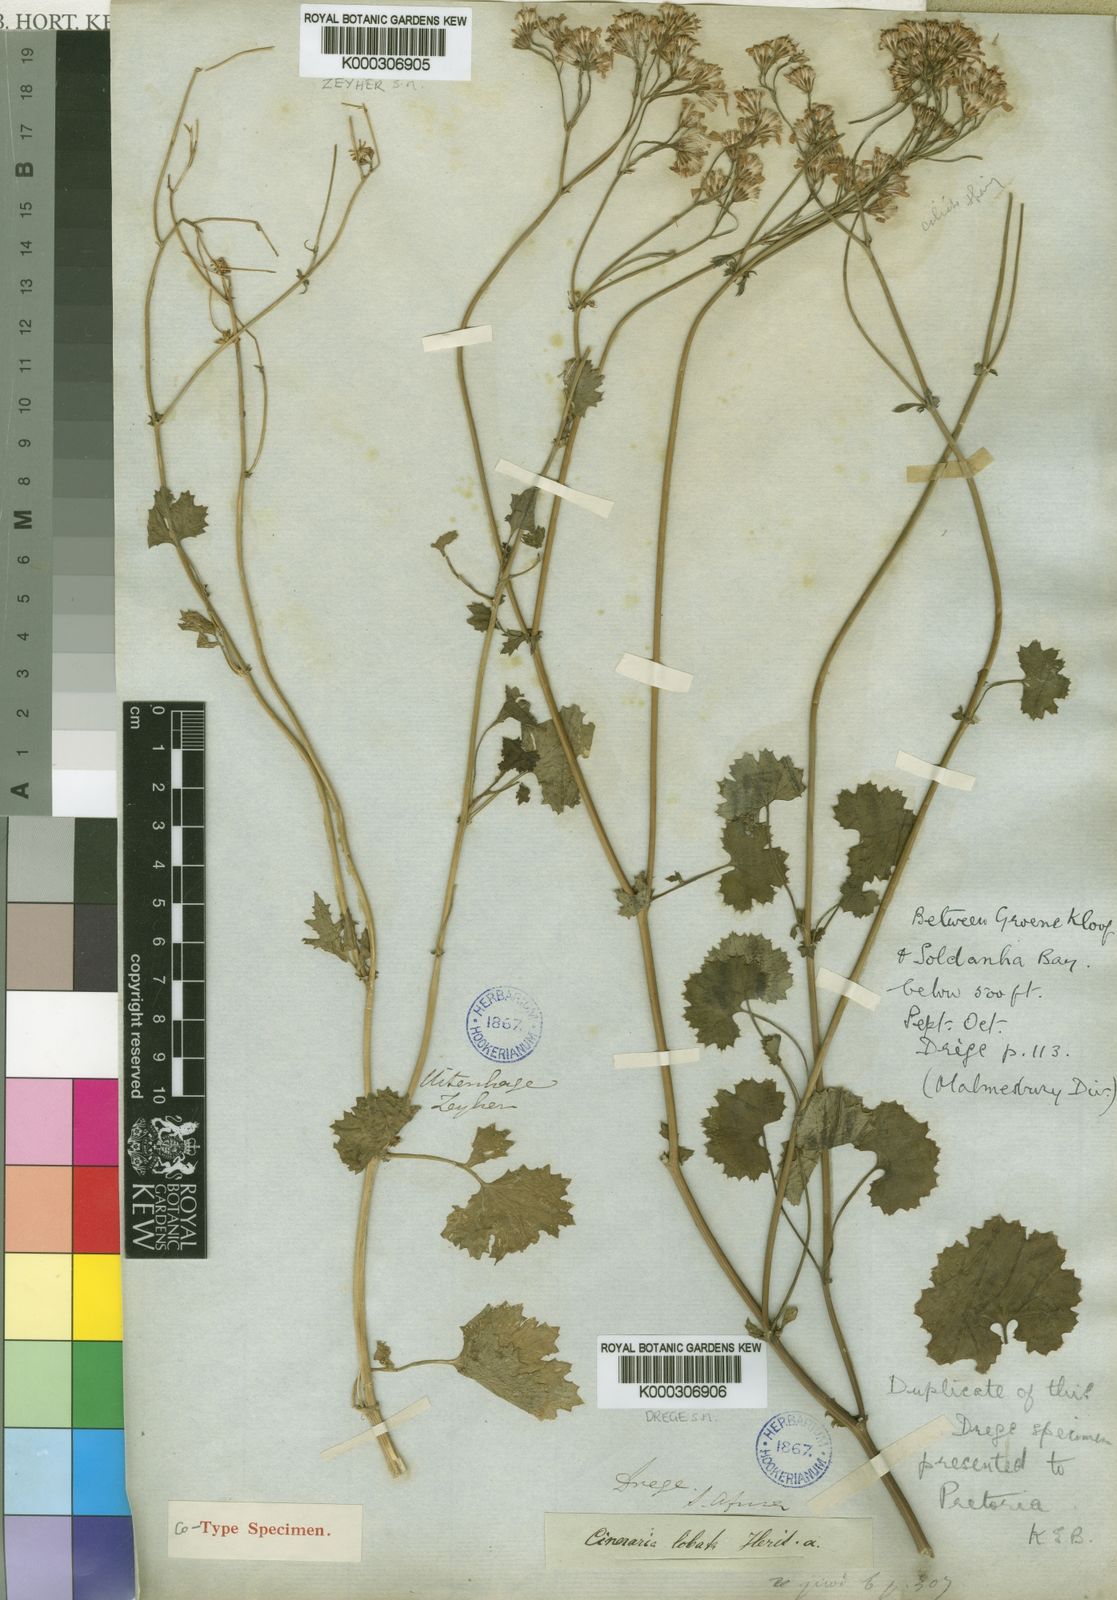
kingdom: Plantae
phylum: Tracheophyta
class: Magnoliopsida
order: Asterales
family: Asteraceae
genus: Cineraria
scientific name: Cineraria
